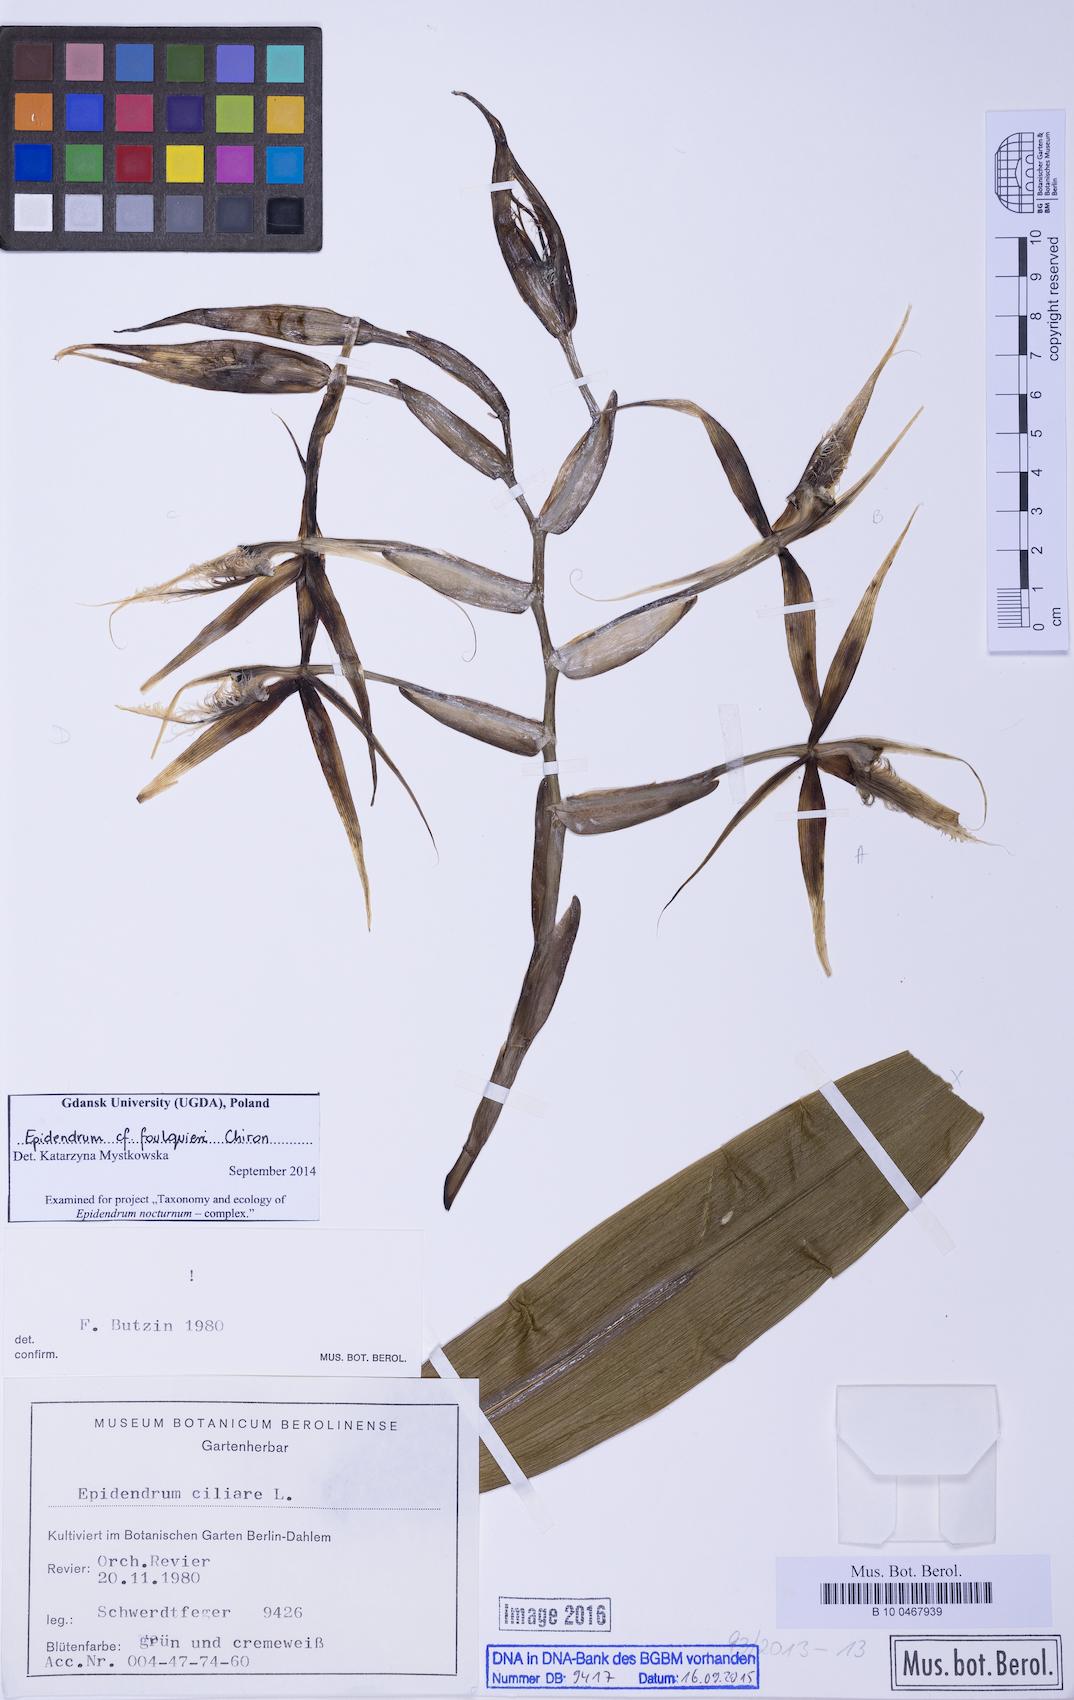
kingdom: Plantae
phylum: Tracheophyta
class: Liliopsida
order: Asparagales
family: Orchidaceae
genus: Epidendrum
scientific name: Epidendrum foulquieri
